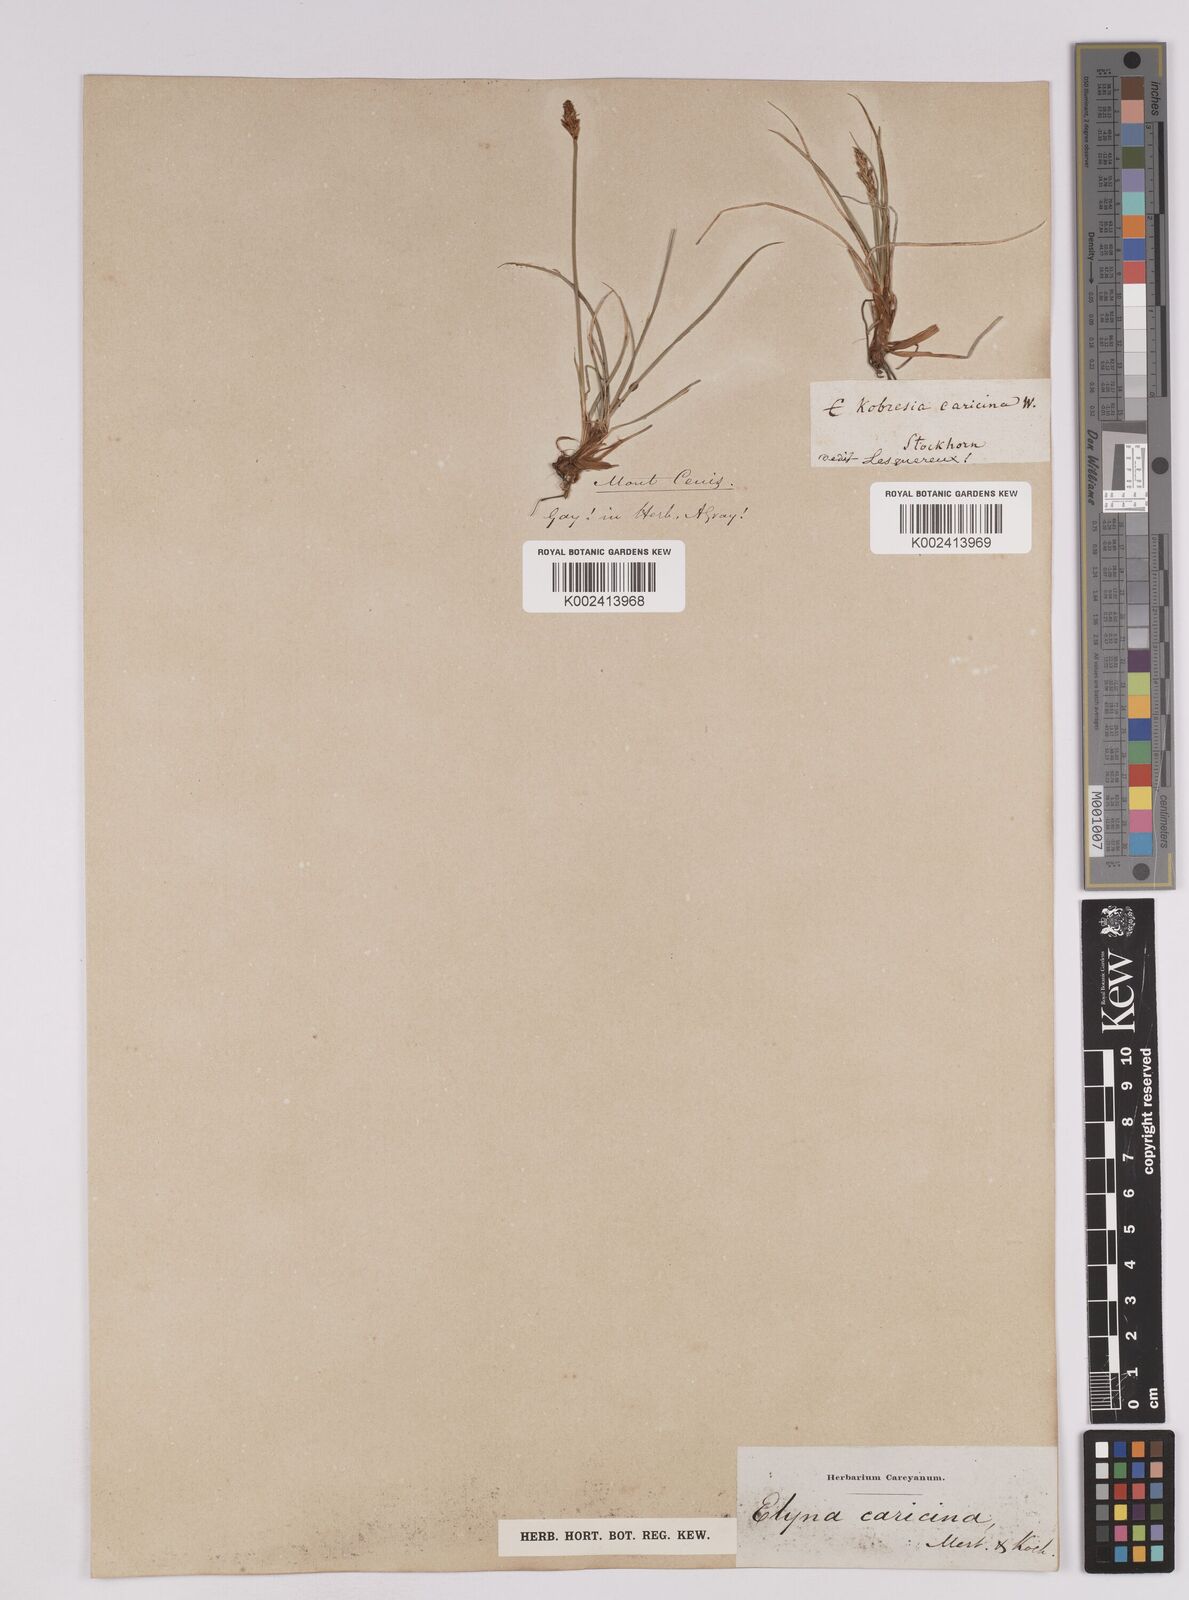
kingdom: Plantae
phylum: Tracheophyta
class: Liliopsida
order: Poales
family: Cyperaceae
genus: Carex
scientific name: Carex simpliciuscula
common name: Simple bog sedge
